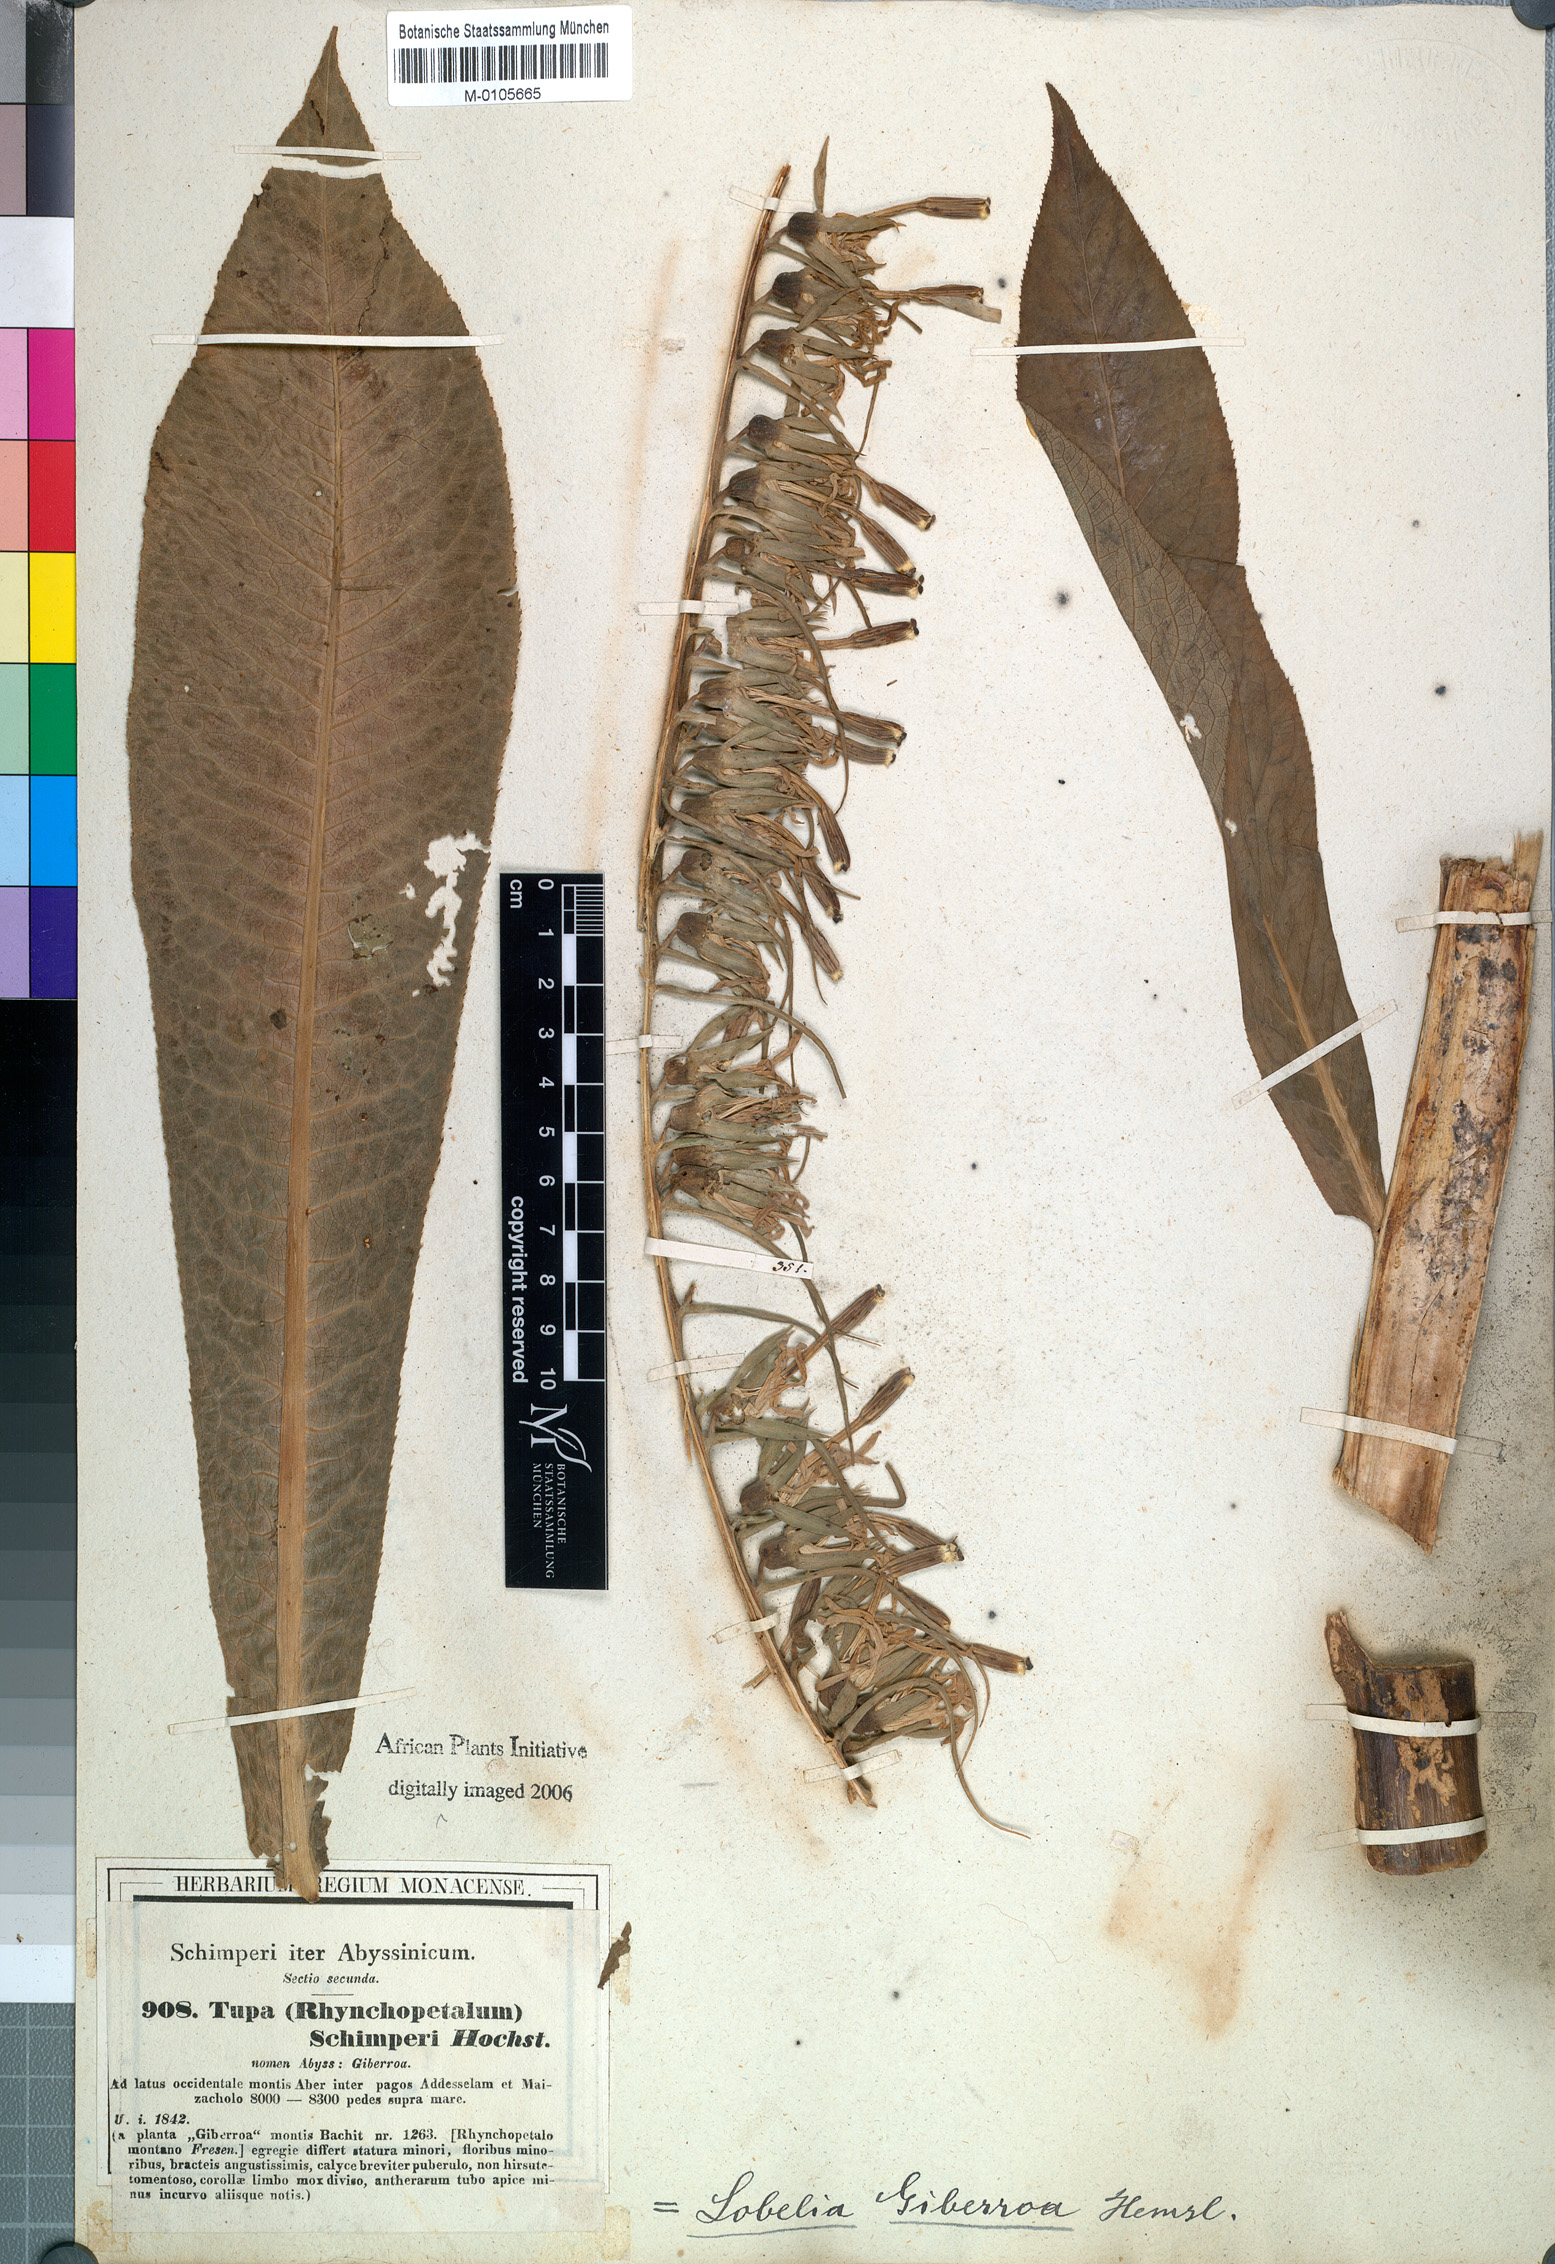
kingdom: Plantae
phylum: Tracheophyta
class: Magnoliopsida
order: Asterales
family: Campanulaceae
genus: Lobelia
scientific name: Lobelia giberroa
